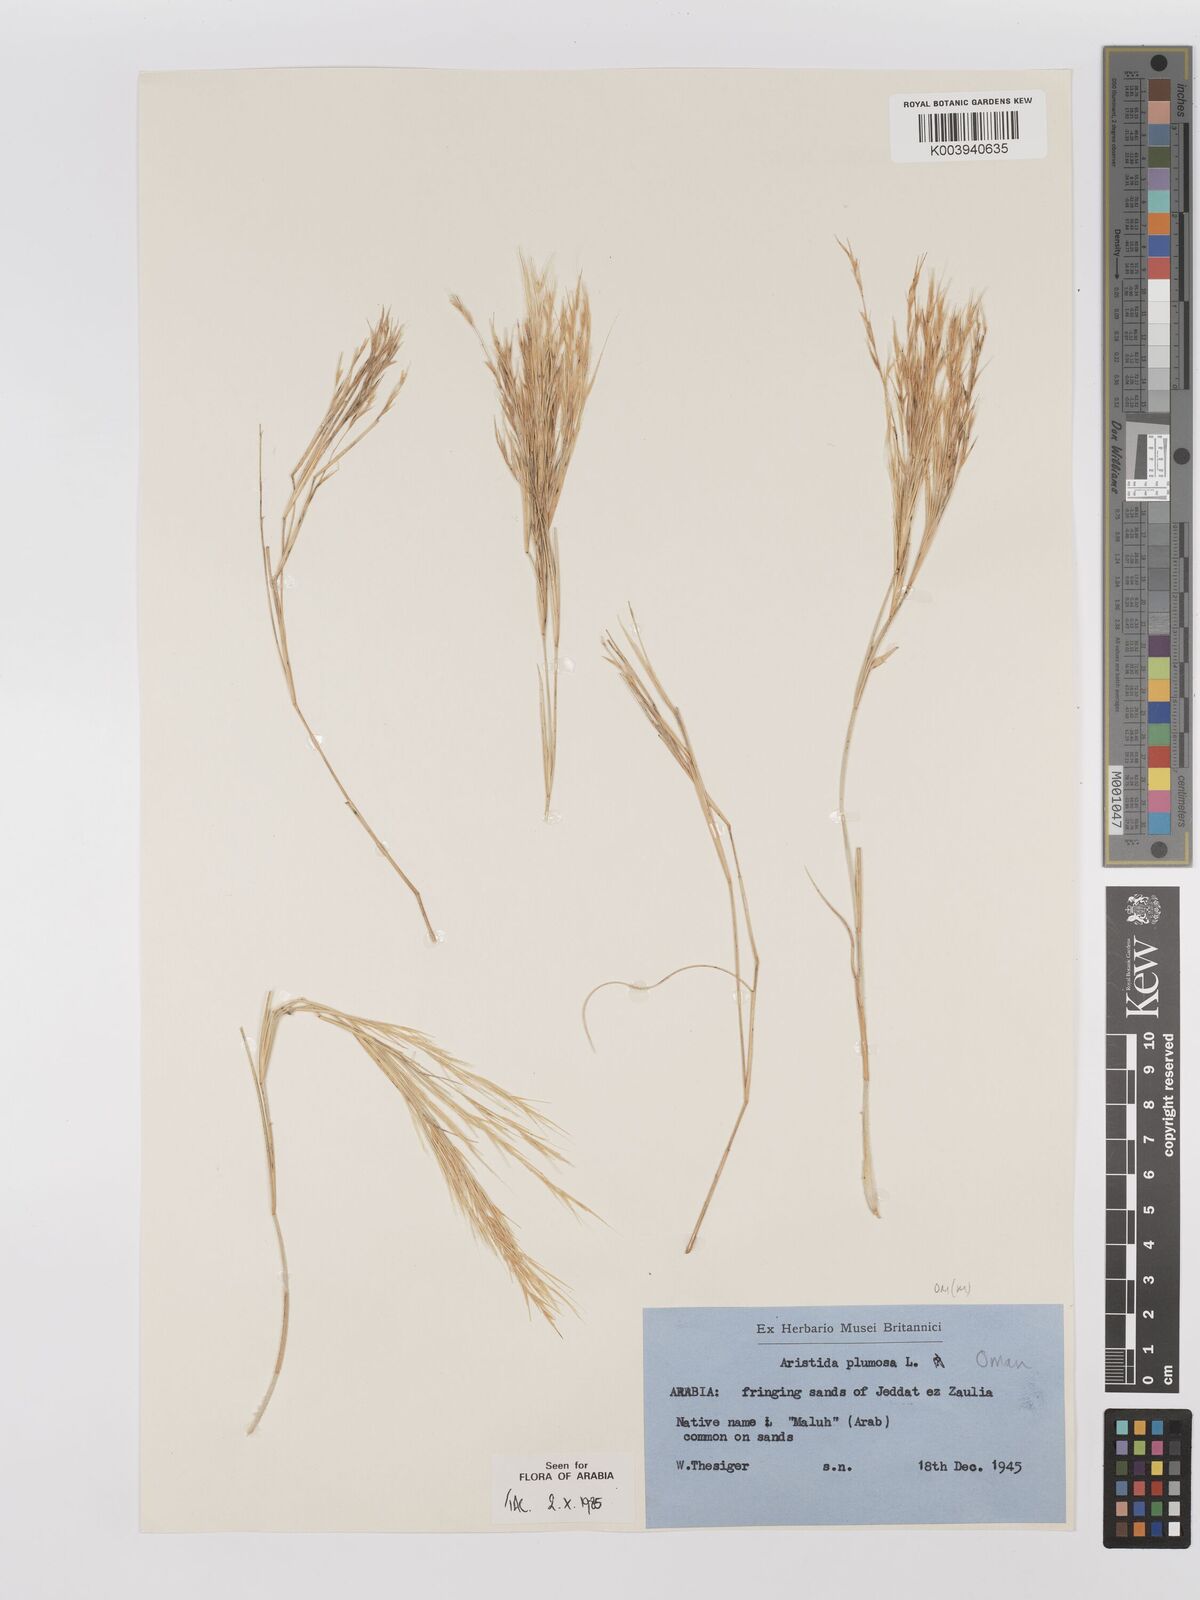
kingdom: Plantae
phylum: Tracheophyta
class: Liliopsida
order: Poales
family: Poaceae
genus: Stipagrostis
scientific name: Stipagrostis plumosa
